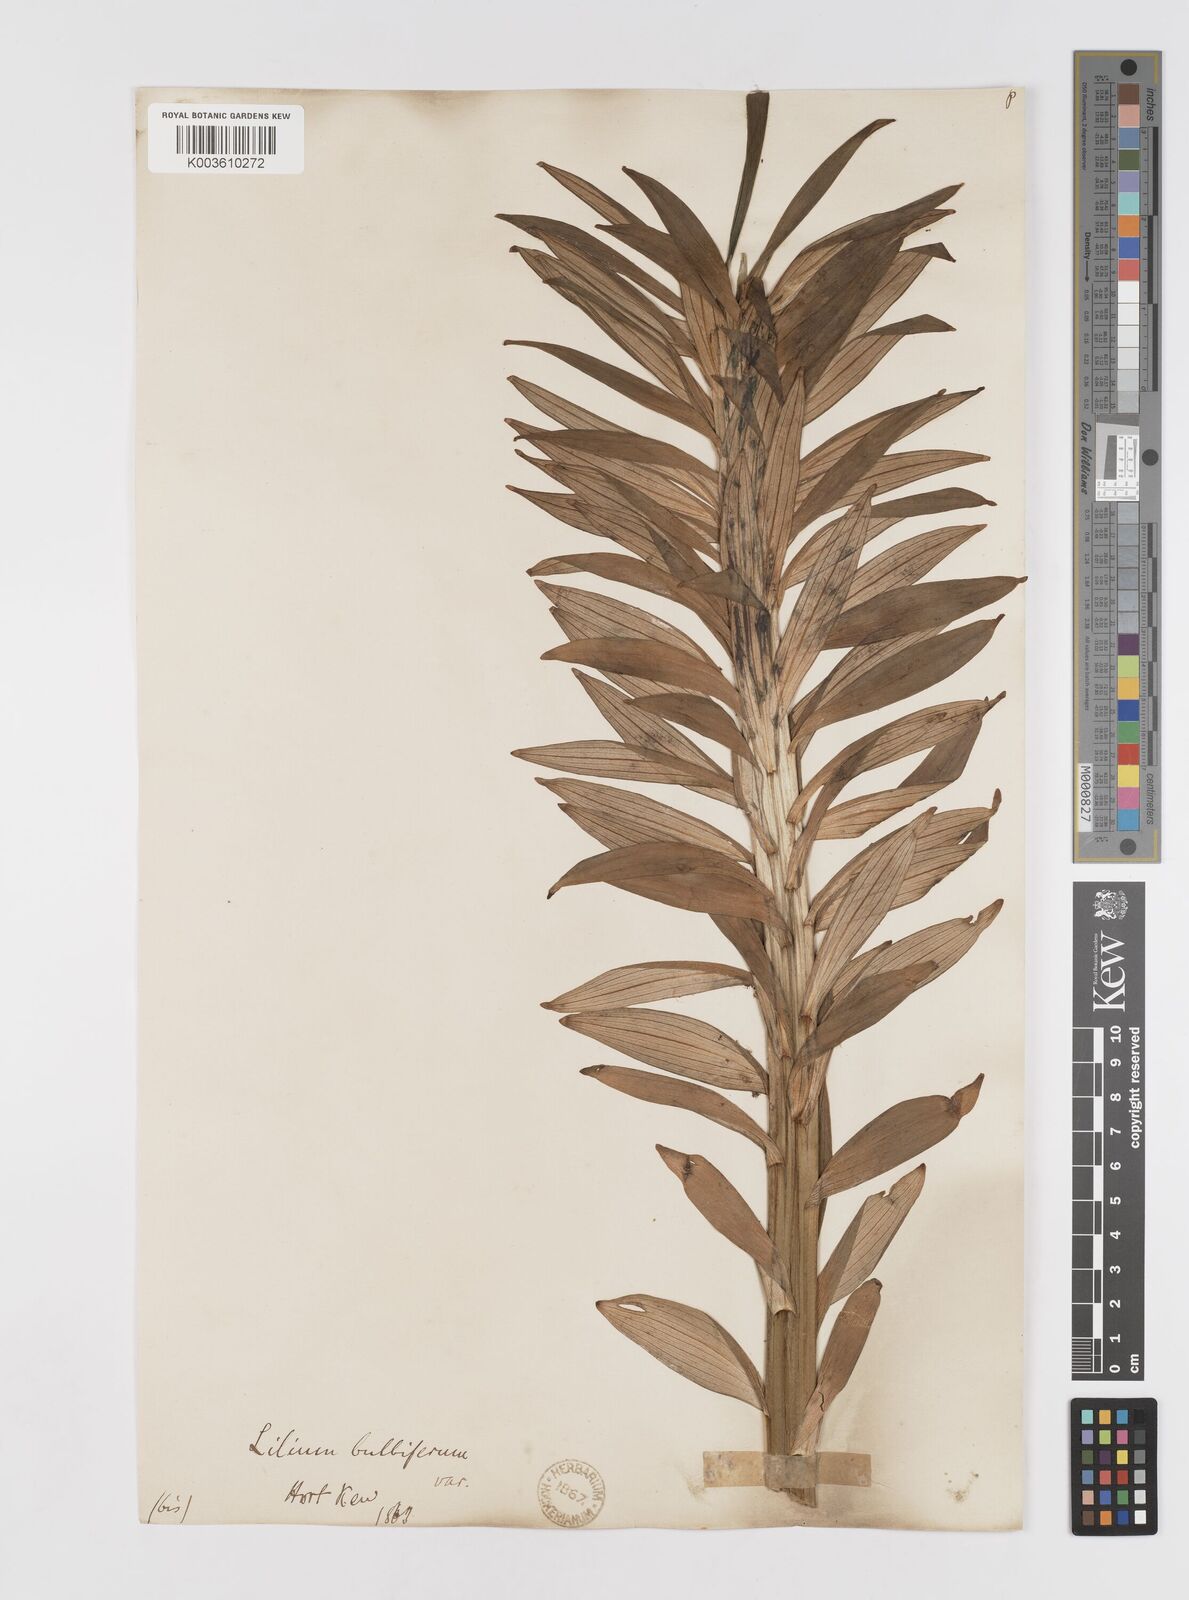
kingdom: Plantae
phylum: Tracheophyta
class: Liliopsida
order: Liliales
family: Liliaceae
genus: Lilium
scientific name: Lilium bulbiferum
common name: Orange lily
